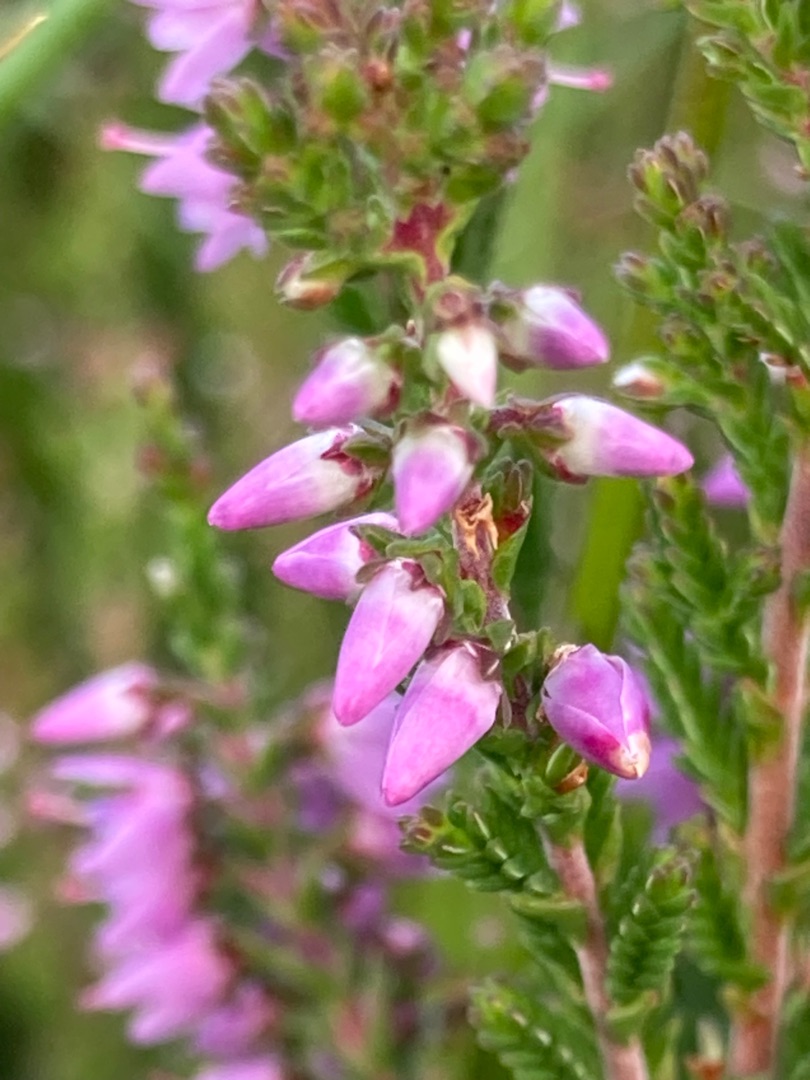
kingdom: Plantae
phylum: Tracheophyta
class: Magnoliopsida
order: Ericales
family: Ericaceae
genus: Calluna
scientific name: Calluna vulgaris
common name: Hedelyng
